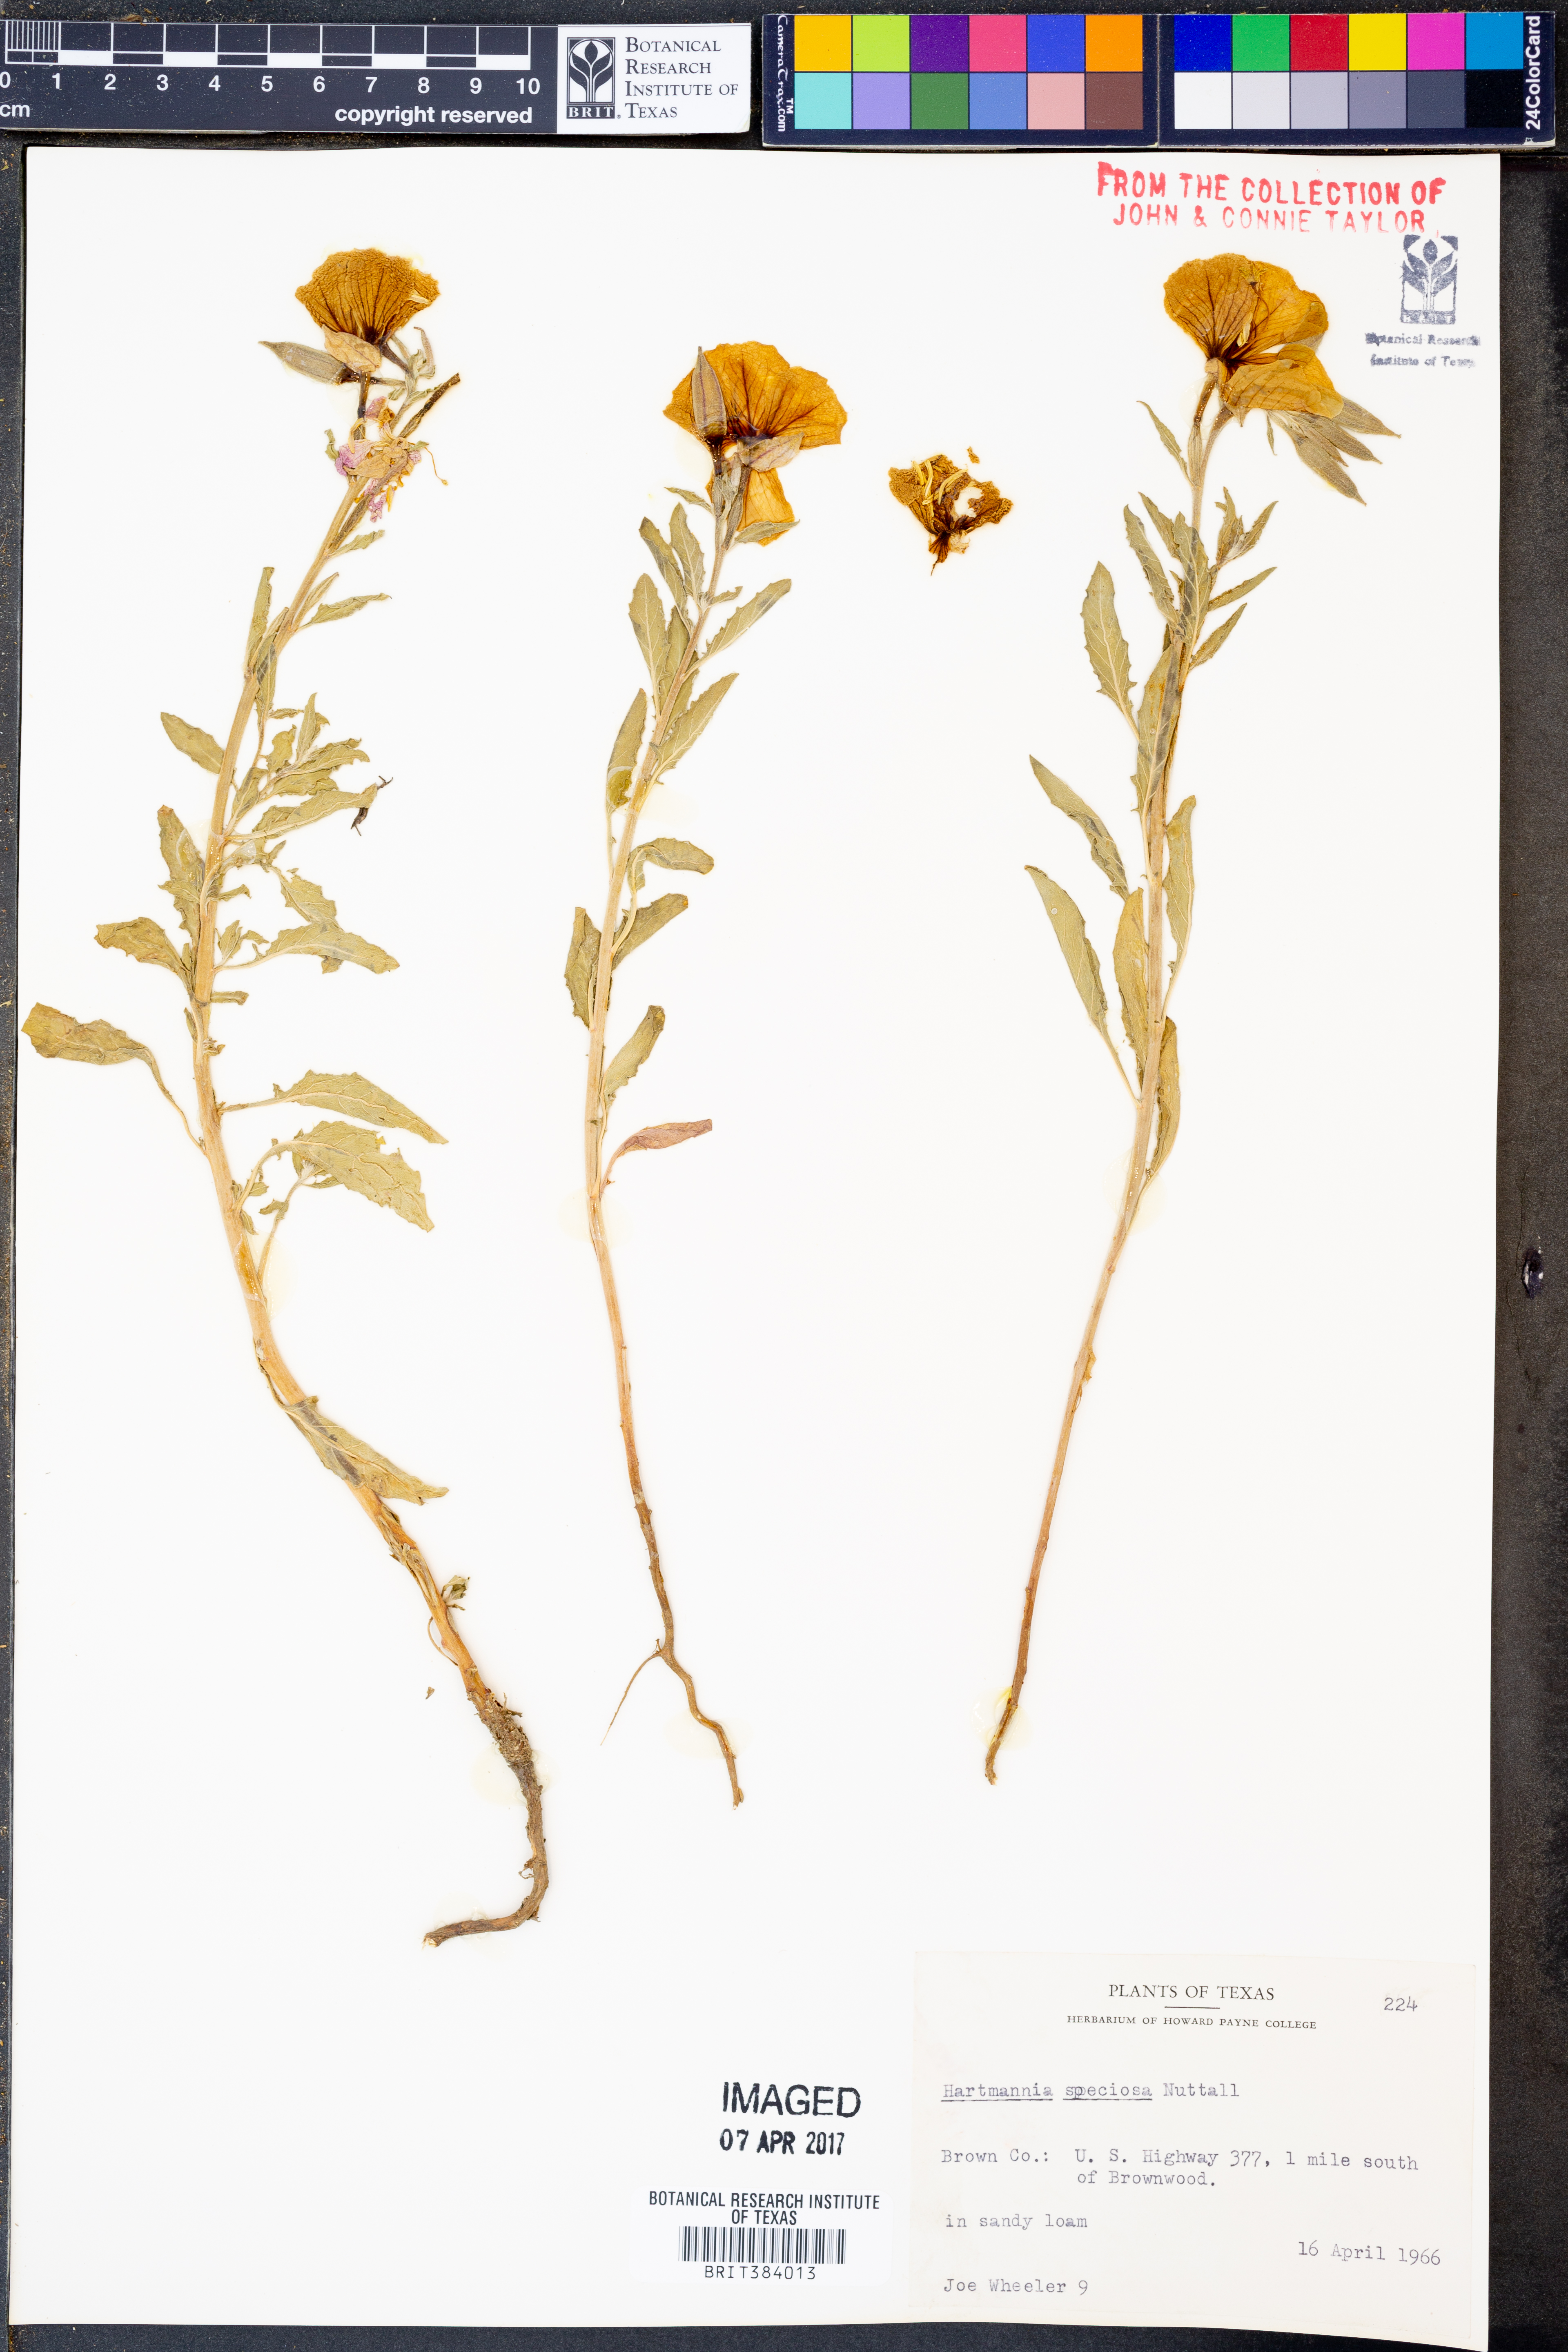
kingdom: Plantae
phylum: Tracheophyta
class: Magnoliopsida
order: Myrtales
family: Onagraceae
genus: Oenothera
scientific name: Oenothera speciosa
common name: White evening-primrose
